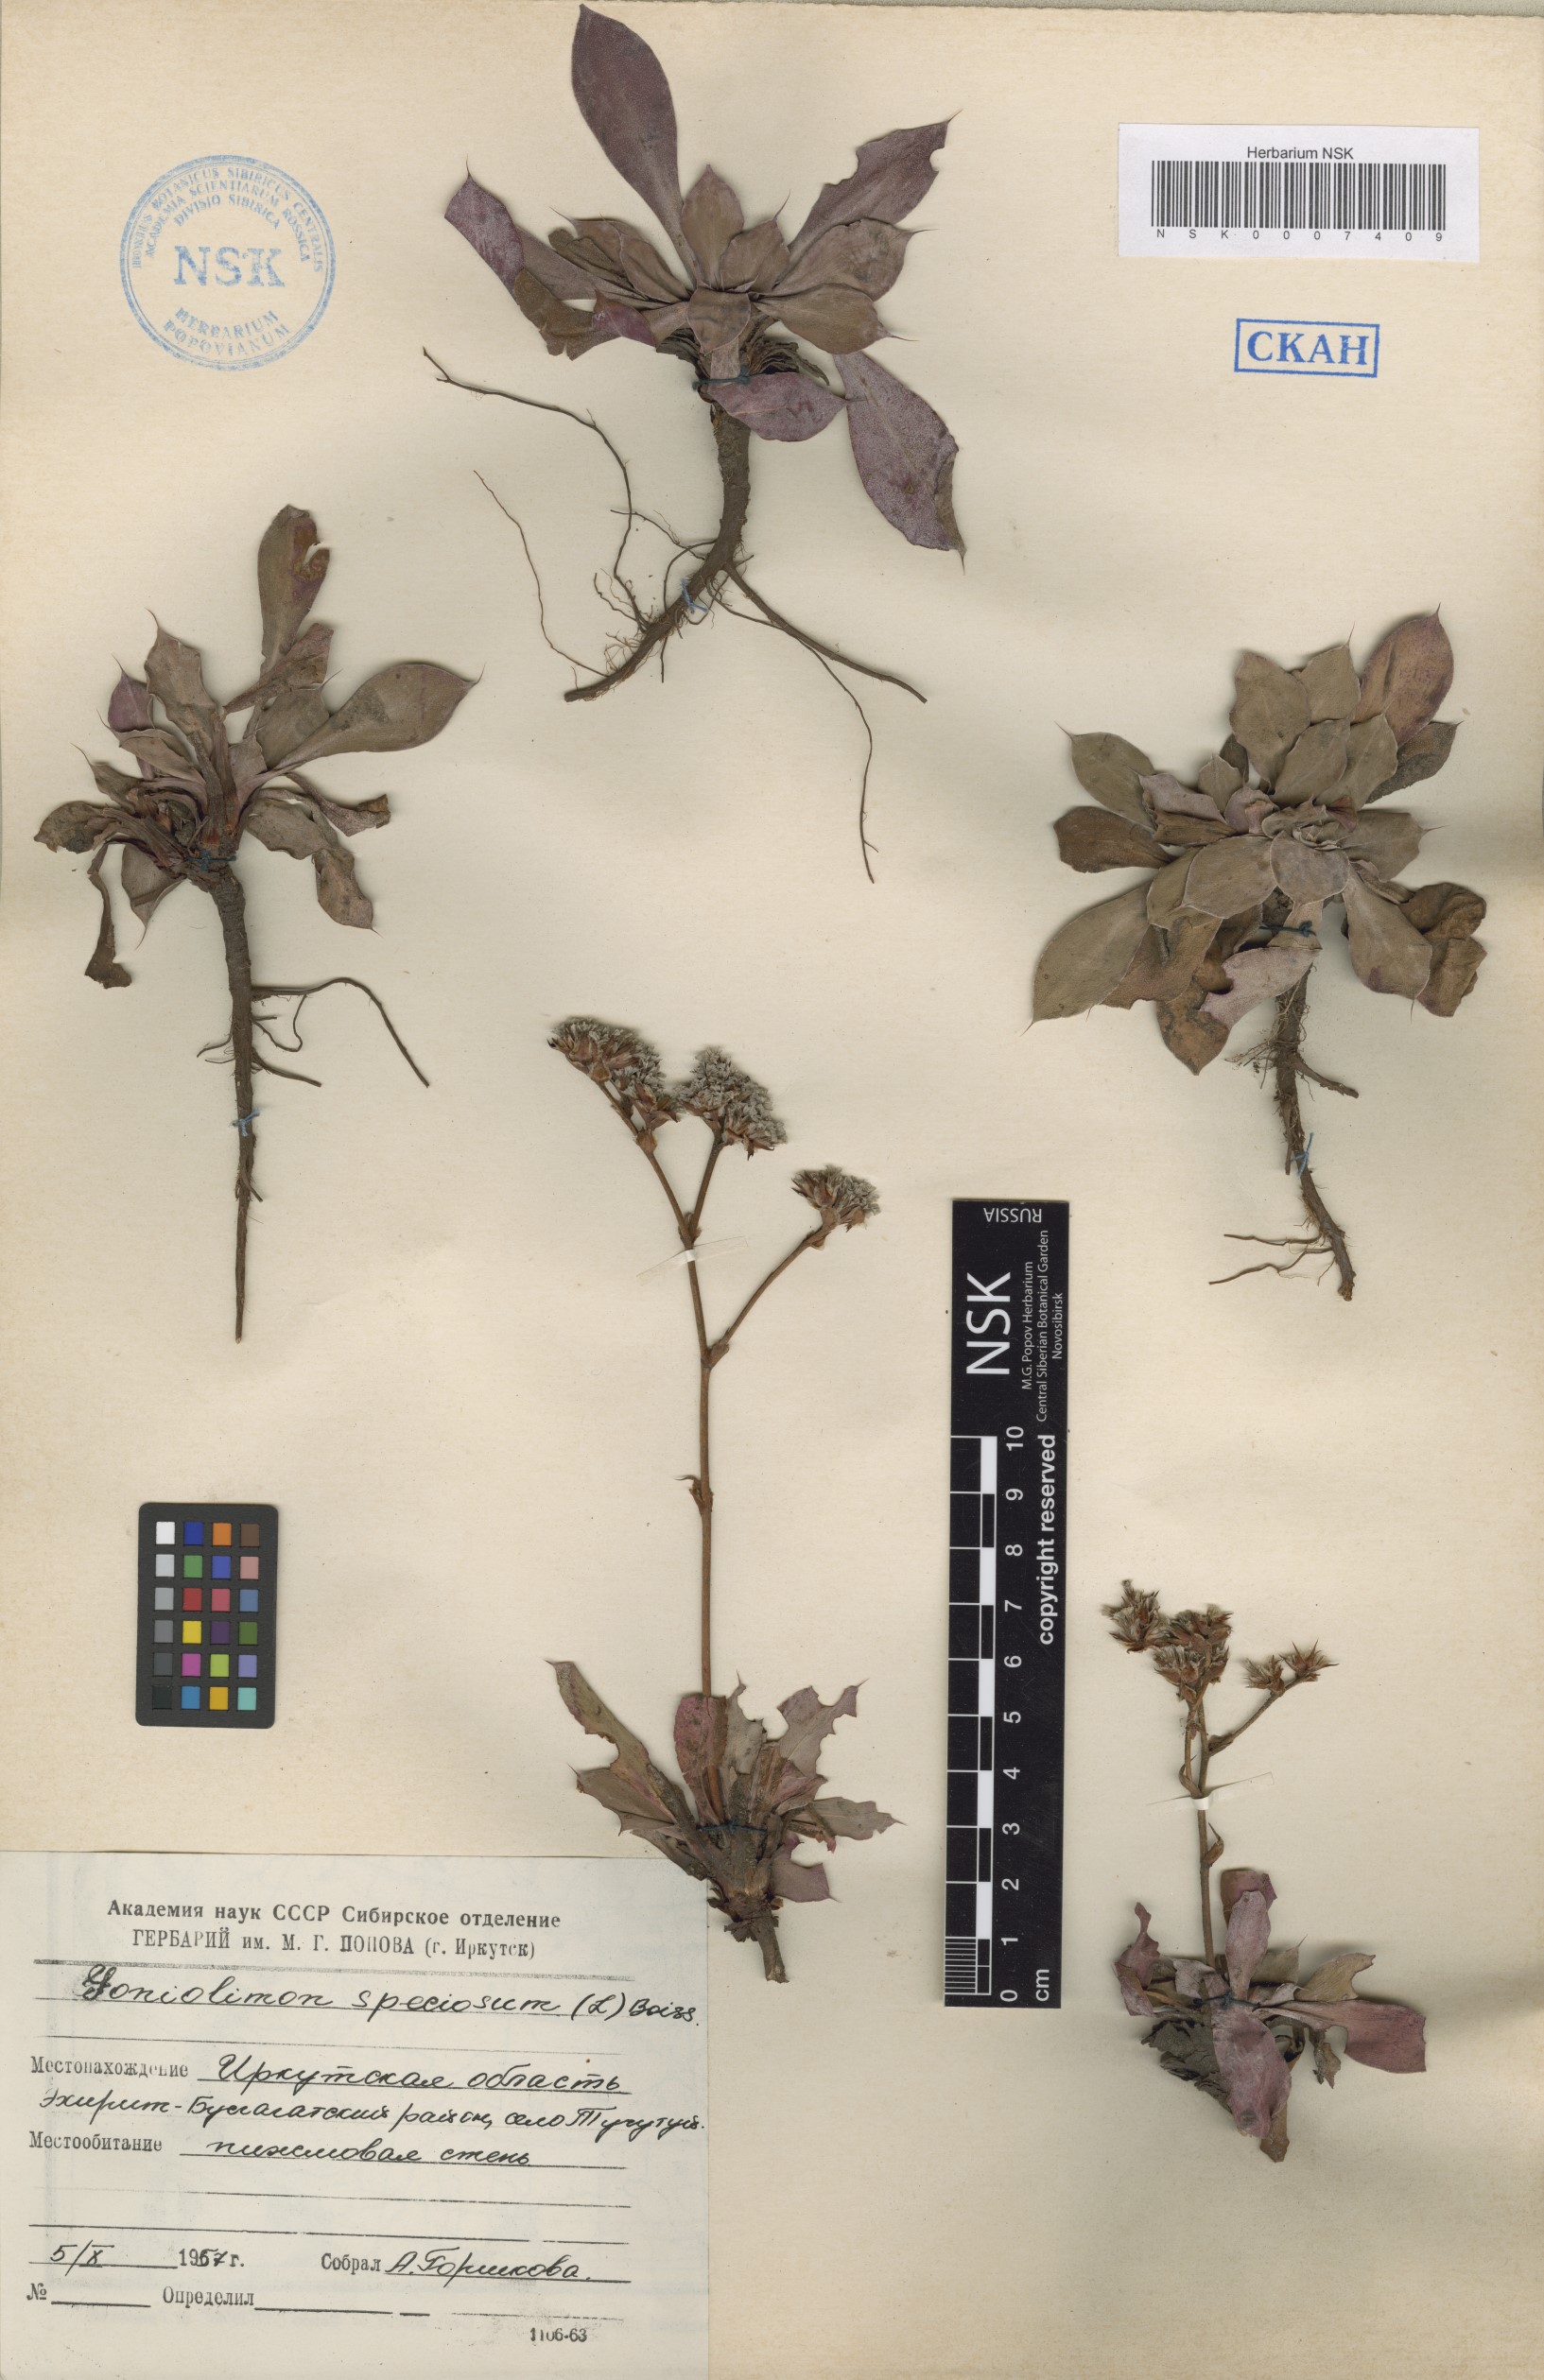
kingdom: Plantae
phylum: Tracheophyta
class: Magnoliopsida
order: Caryophyllales
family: Plumbaginaceae
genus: Goniolimon
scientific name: Goniolimon speciosum
